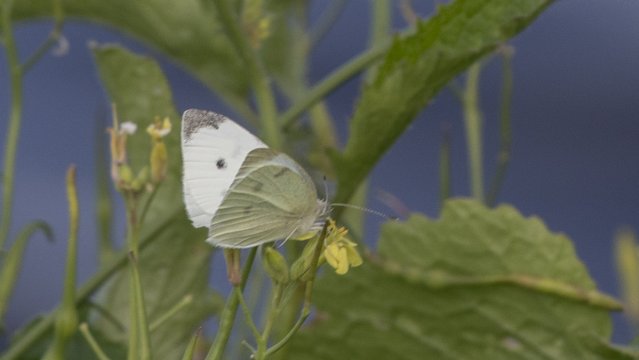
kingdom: Animalia
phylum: Arthropoda
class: Insecta
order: Lepidoptera
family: Pieridae
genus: Pieris
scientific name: Pieris rapae
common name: Cabbage White
